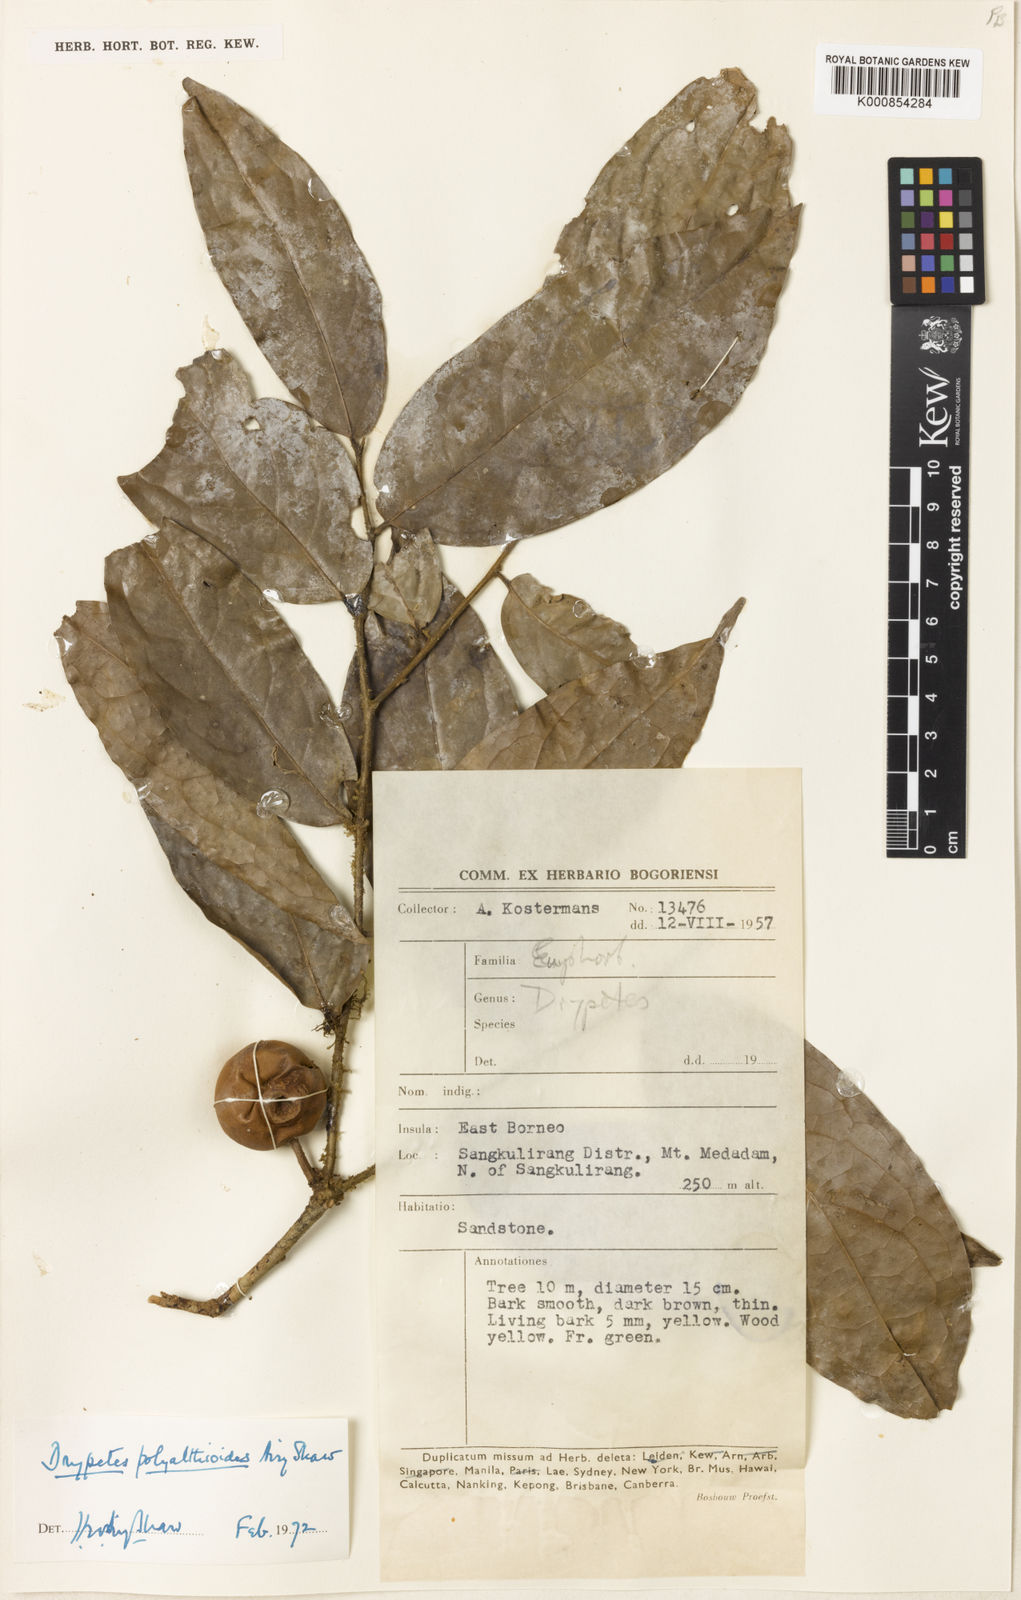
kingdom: Plantae
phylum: Tracheophyta
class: Magnoliopsida
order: Malpighiales
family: Putranjivaceae
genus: Drypetes
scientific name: Drypetes polyalthioides
